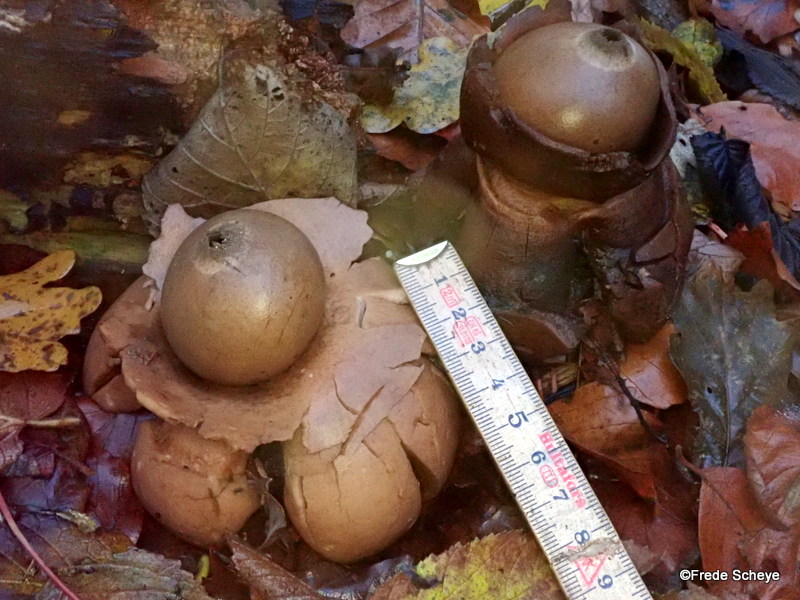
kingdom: Fungi
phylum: Basidiomycota
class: Agaricomycetes
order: Geastrales
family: Geastraceae
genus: Geastrum
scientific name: Geastrum michelianum
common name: kødet stjernebold
